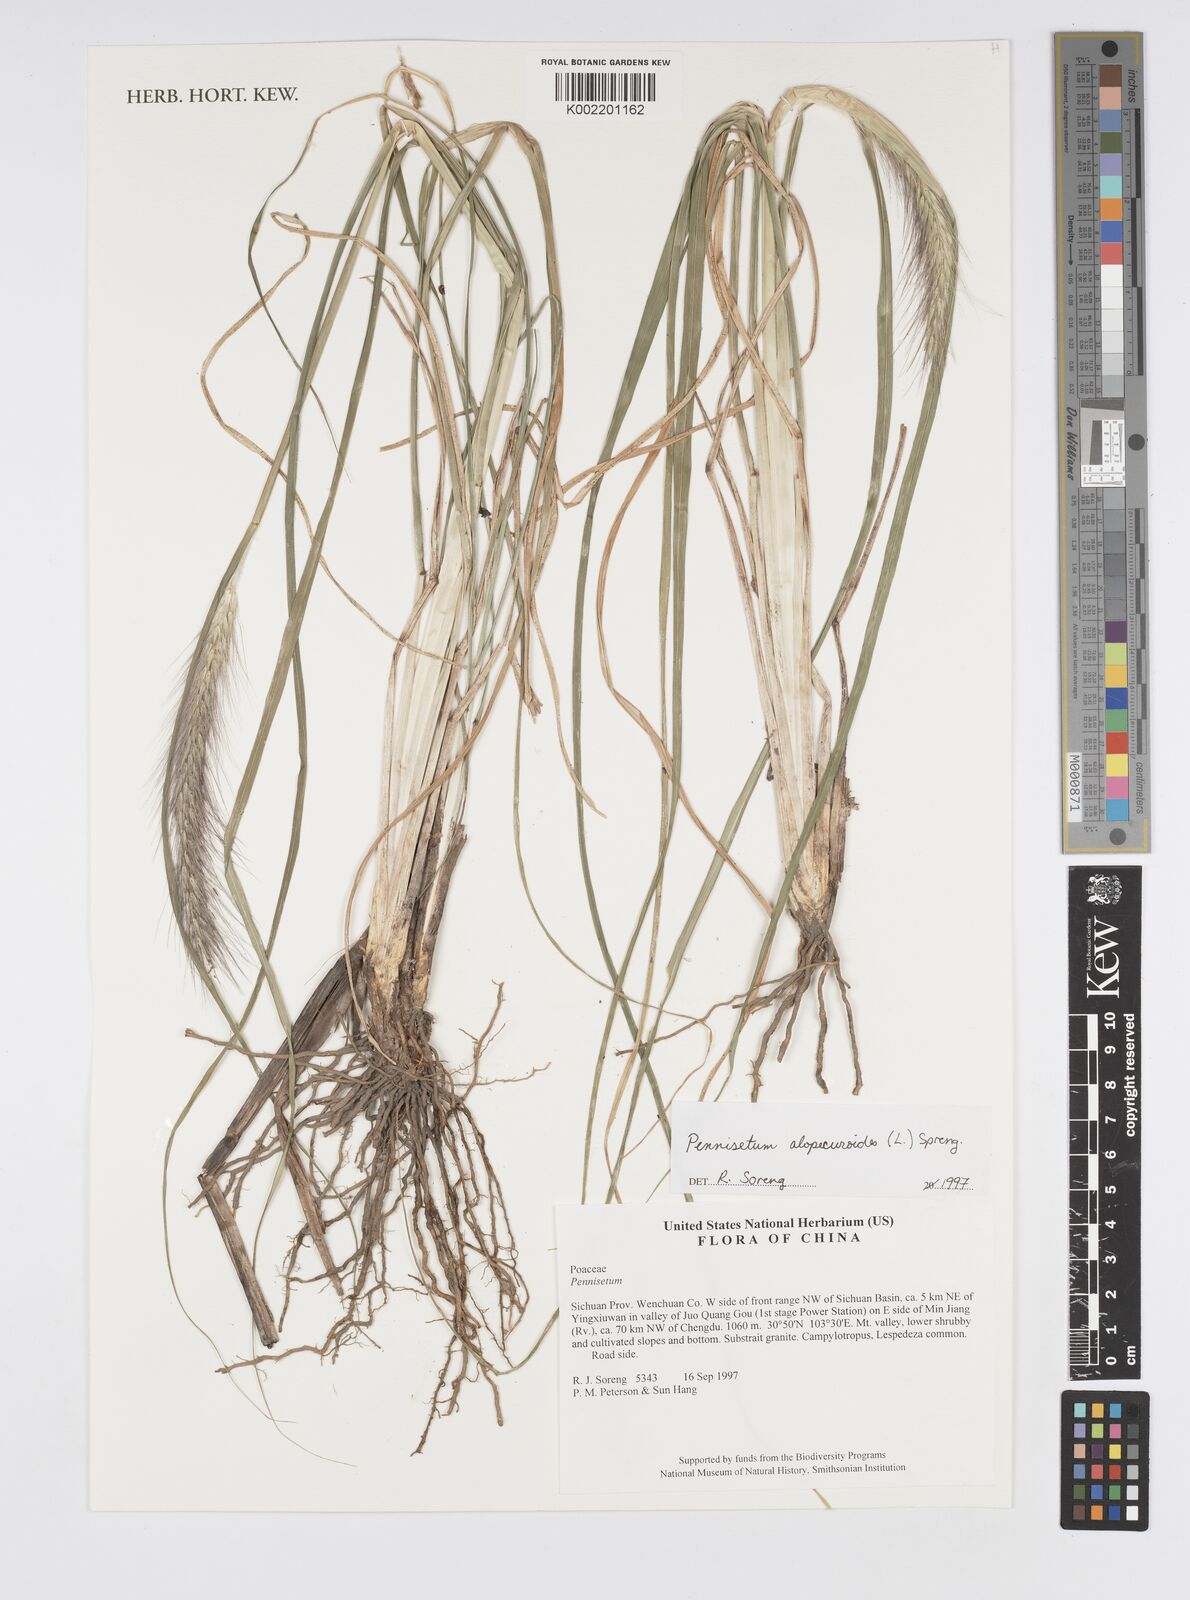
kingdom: Plantae
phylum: Tracheophyta
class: Liliopsida
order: Poales
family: Poaceae
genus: Cenchrus
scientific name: Cenchrus alopecuroides
